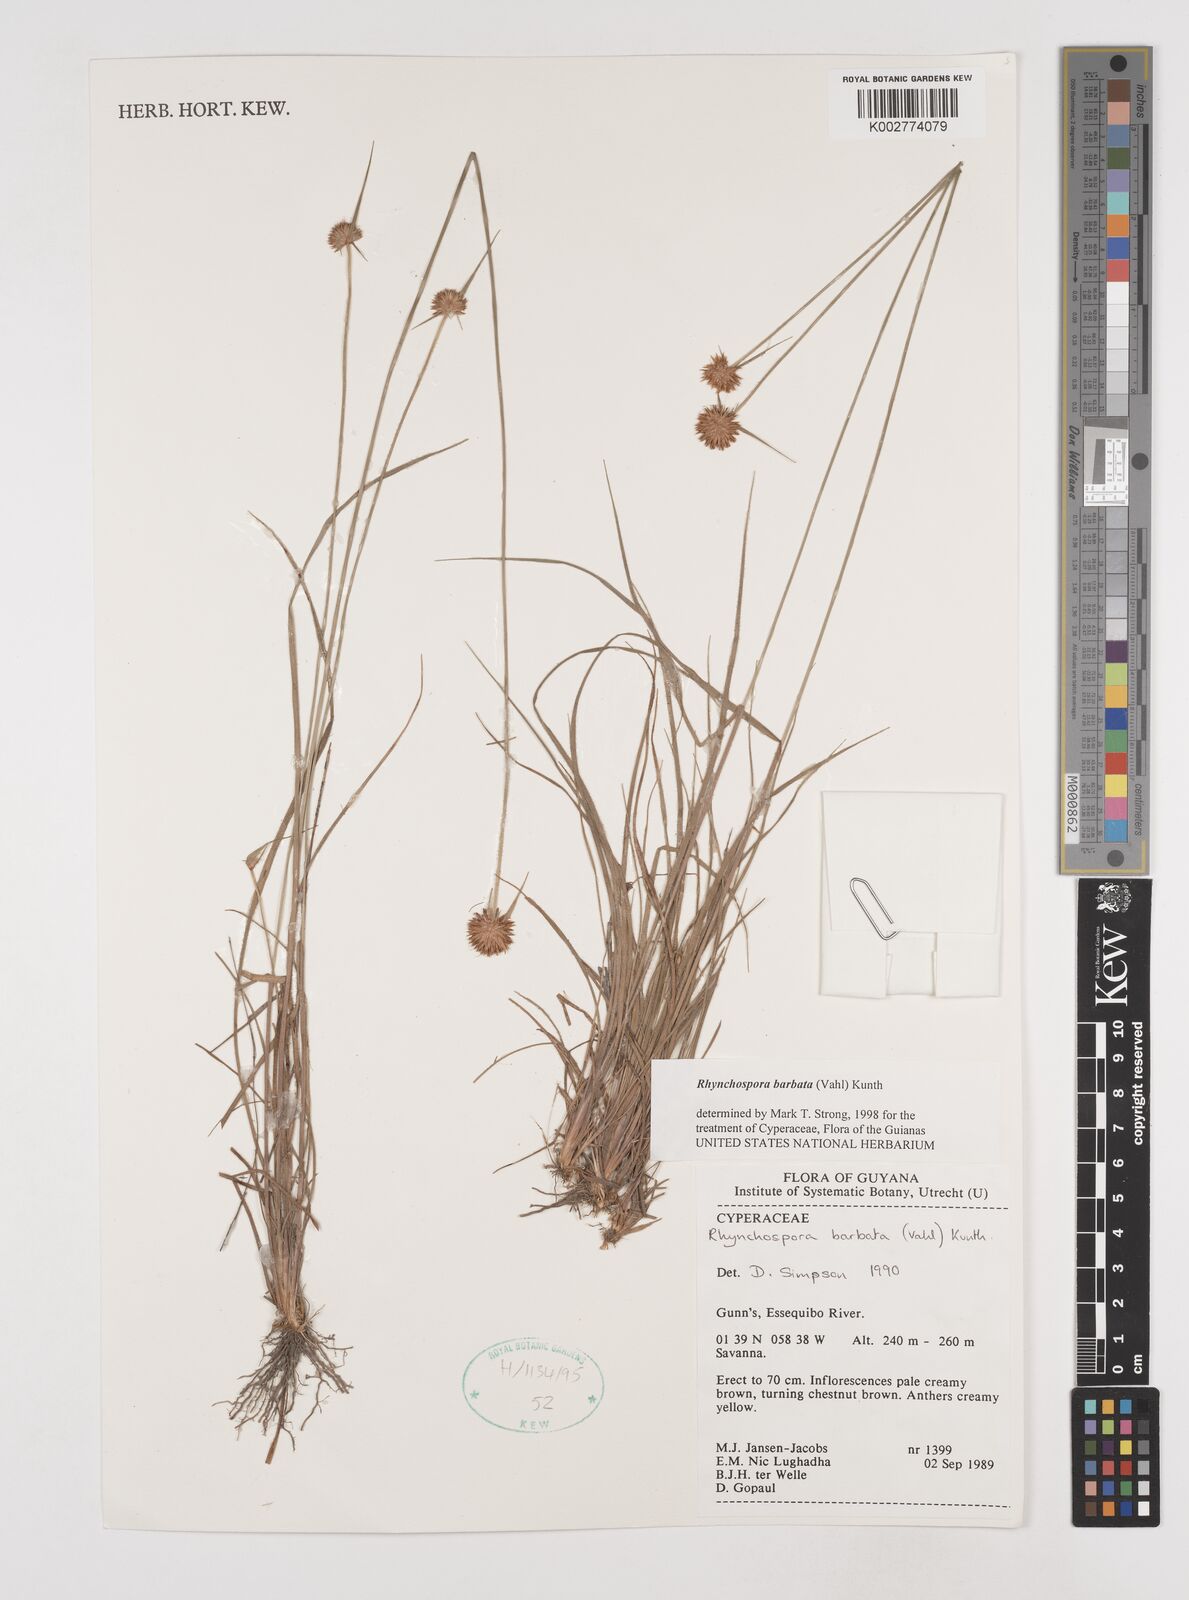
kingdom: Plantae
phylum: Tracheophyta
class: Liliopsida
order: Poales
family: Cyperaceae
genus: Rhynchospora
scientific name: Rhynchospora barbata
